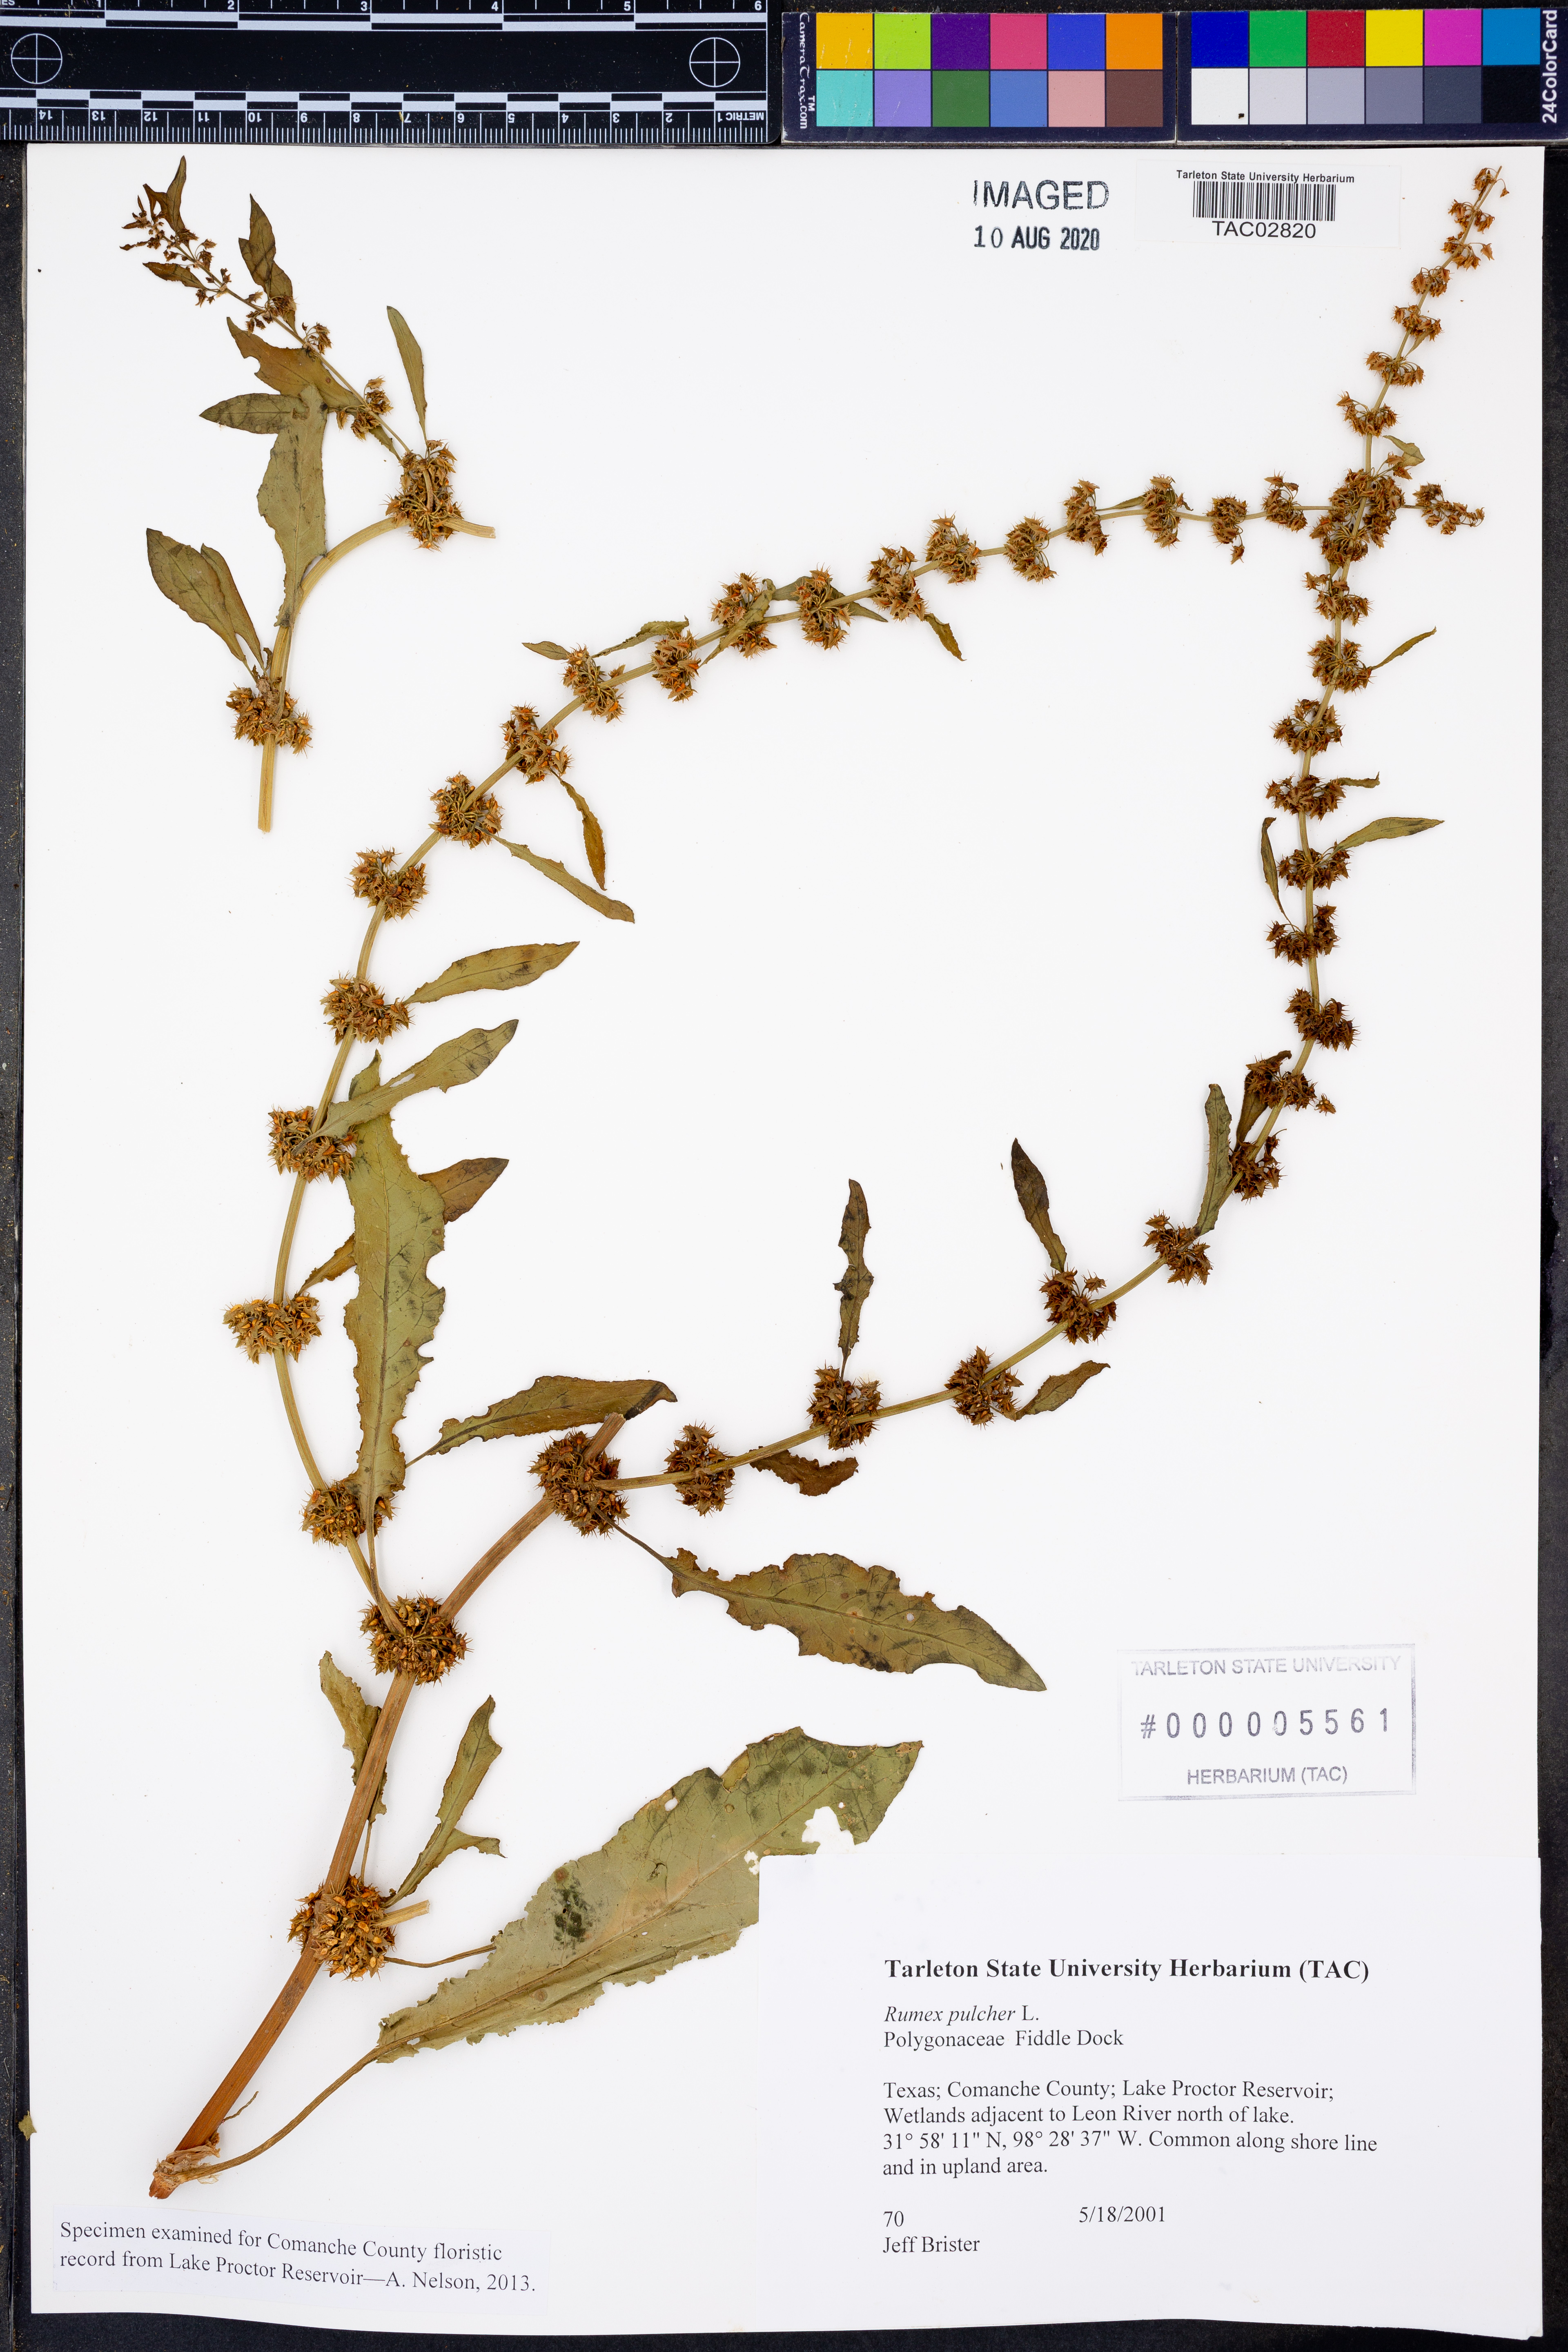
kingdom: Plantae
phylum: Tracheophyta
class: Magnoliopsida
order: Caryophyllales
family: Polygonaceae
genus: Rumex
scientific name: Rumex pulcher
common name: Fiddle dock
